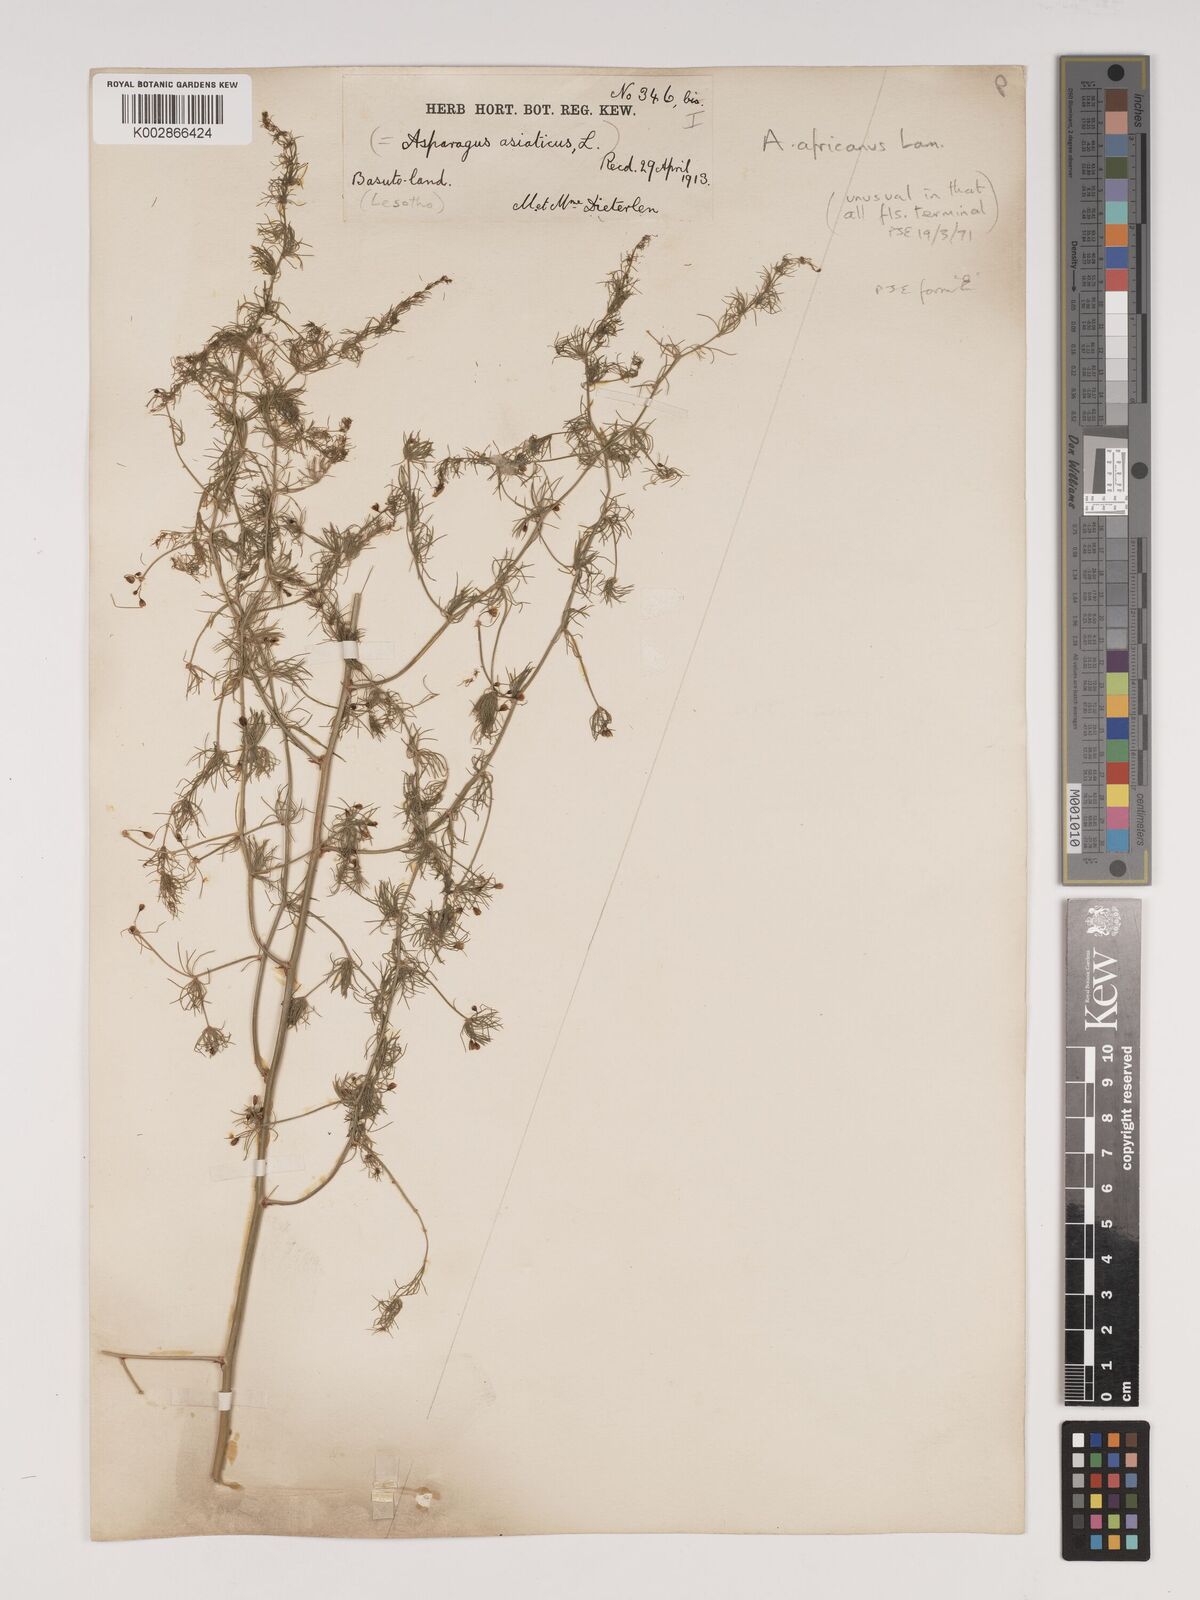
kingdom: Plantae
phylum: Tracheophyta
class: Liliopsida
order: Asparagales
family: Asparagaceae
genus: Asparagus
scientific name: Asparagus africanus
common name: Asparagus-fern
